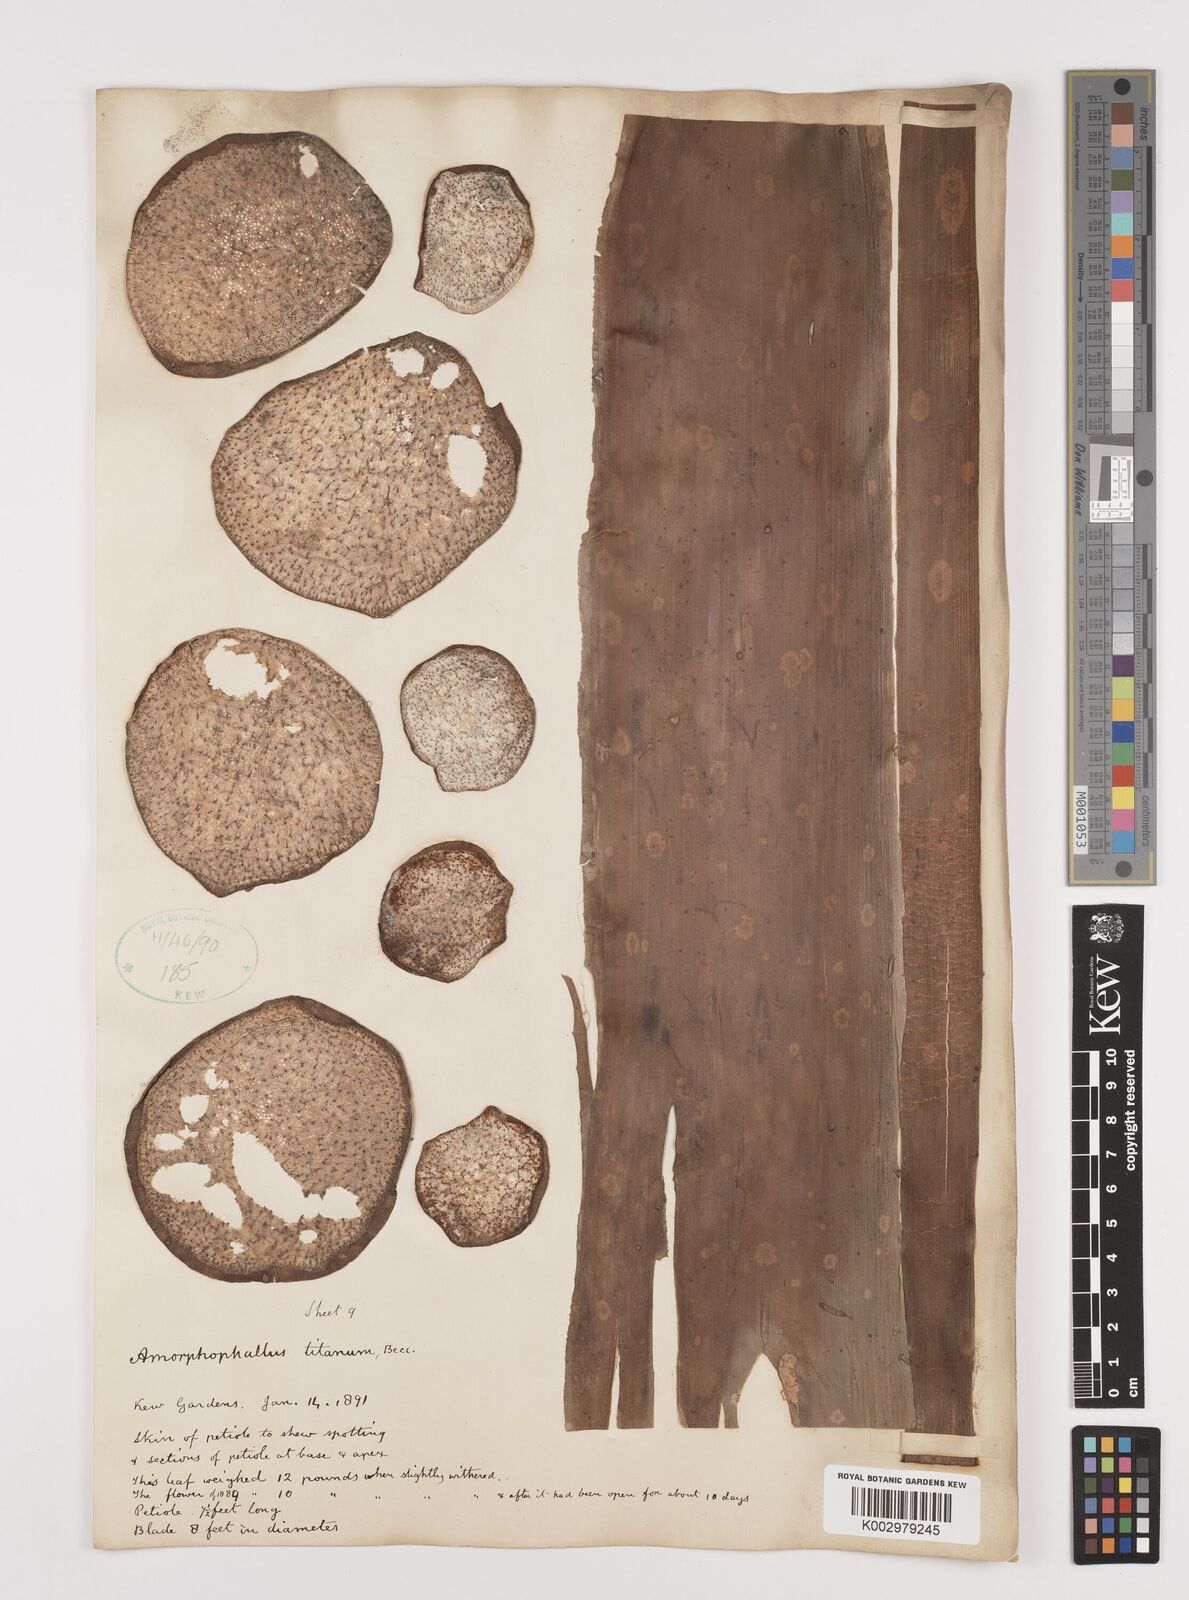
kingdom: Plantae
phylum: Tracheophyta
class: Liliopsida
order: Alismatales
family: Araceae
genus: Amorphophallus
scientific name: Amorphophallus titanum
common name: Titan arum
